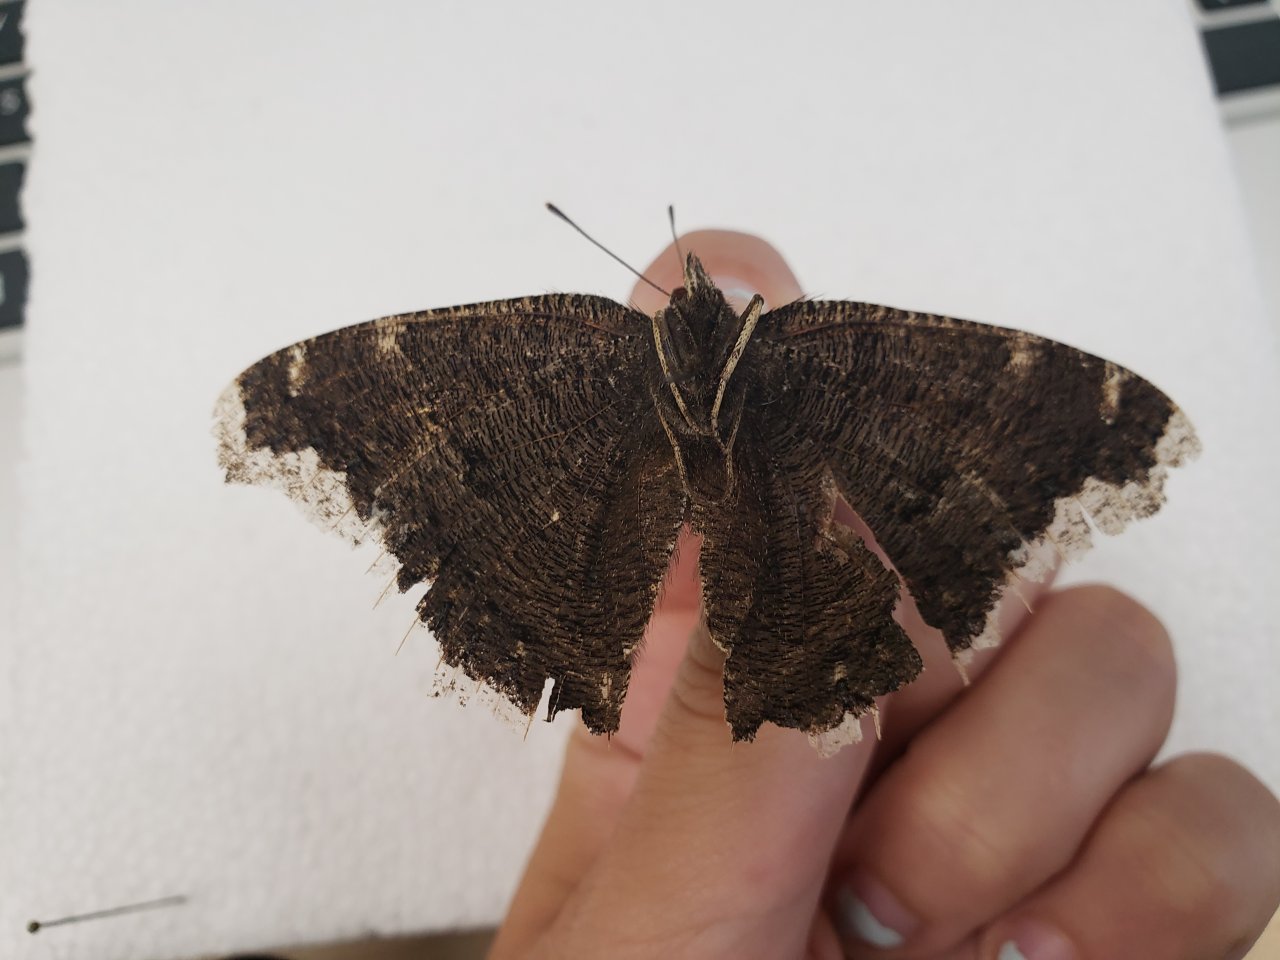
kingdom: Animalia
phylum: Arthropoda
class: Insecta
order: Lepidoptera
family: Nymphalidae
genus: Nymphalis
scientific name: Nymphalis antiopa
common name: Mourning Cloak
